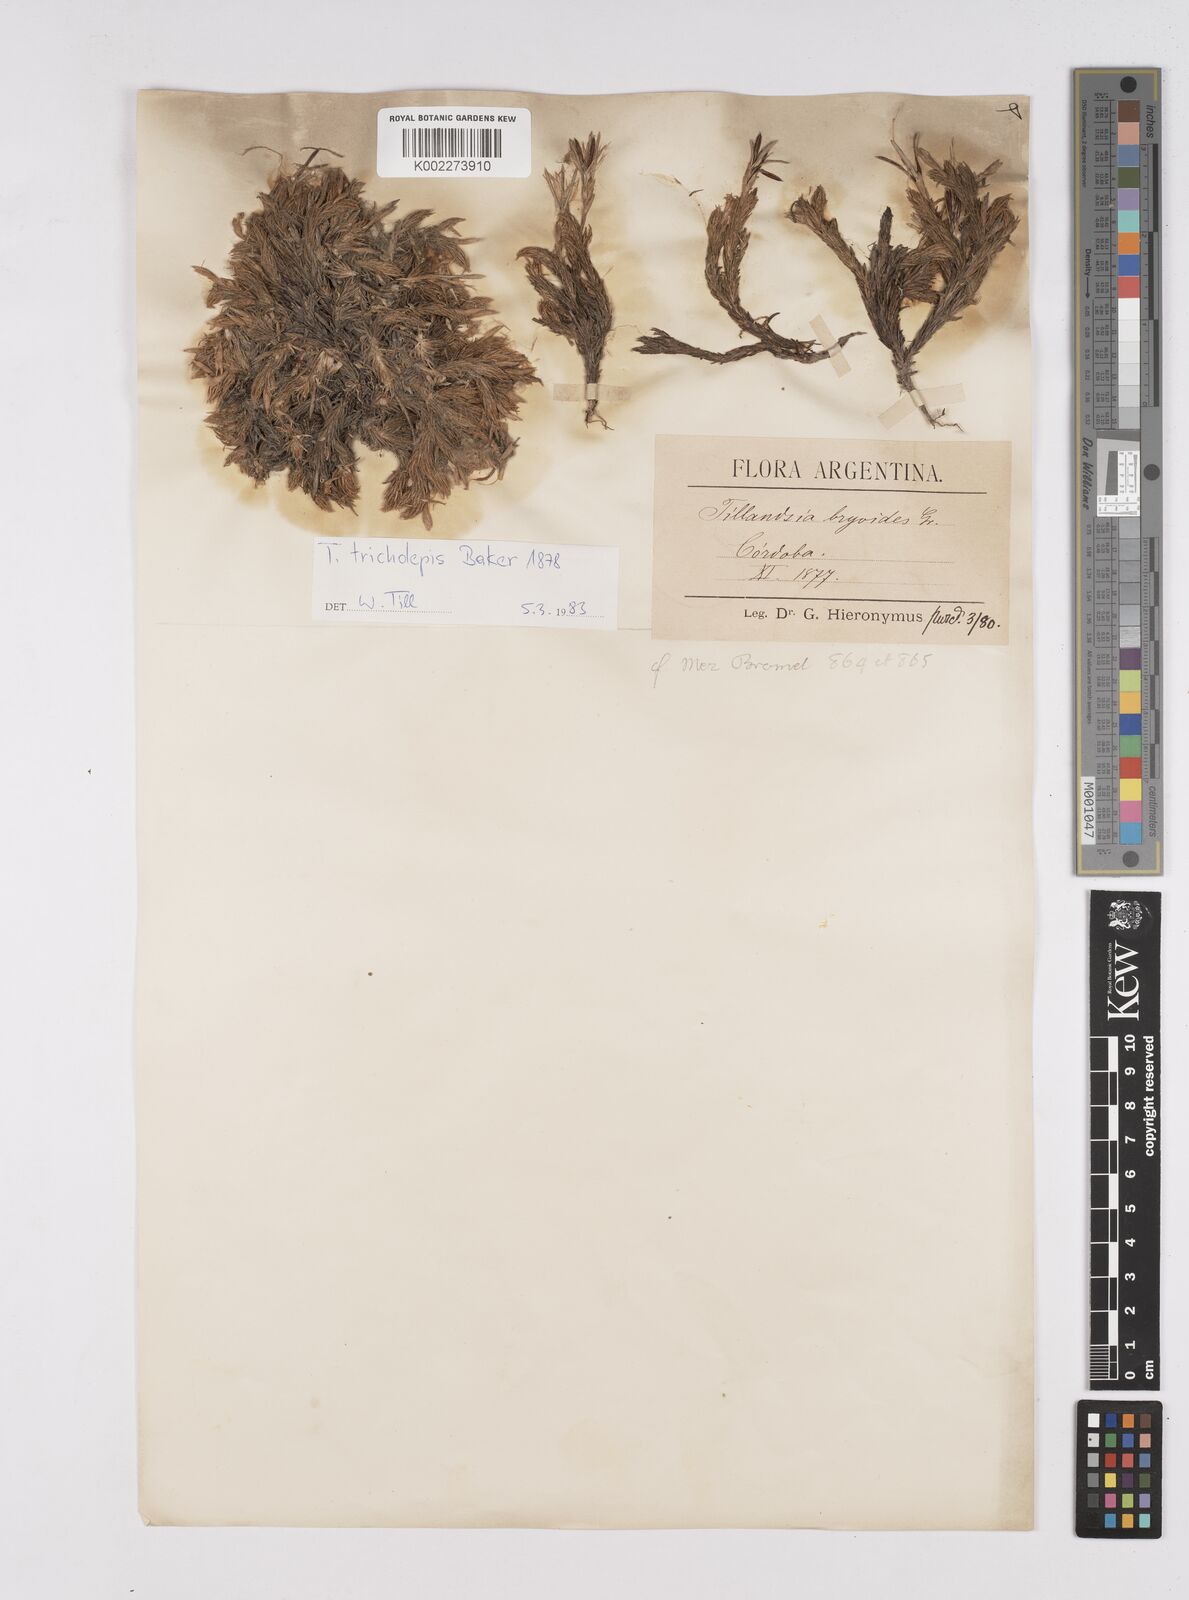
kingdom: Plantae
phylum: Tracheophyta
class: Liliopsida
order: Poales
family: Bromeliaceae
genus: Tillandsia
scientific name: Tillandsia tricholepis
